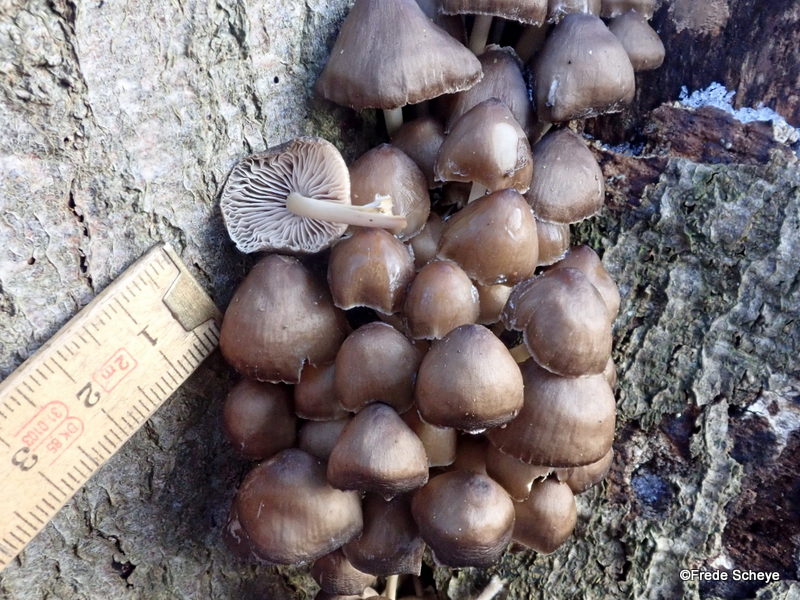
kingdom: Fungi
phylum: Basidiomycota
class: Agaricomycetes
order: Agaricales
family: Mycenaceae
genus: Mycena
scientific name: Mycena tintinnabulum
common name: vinter-huesvamp
